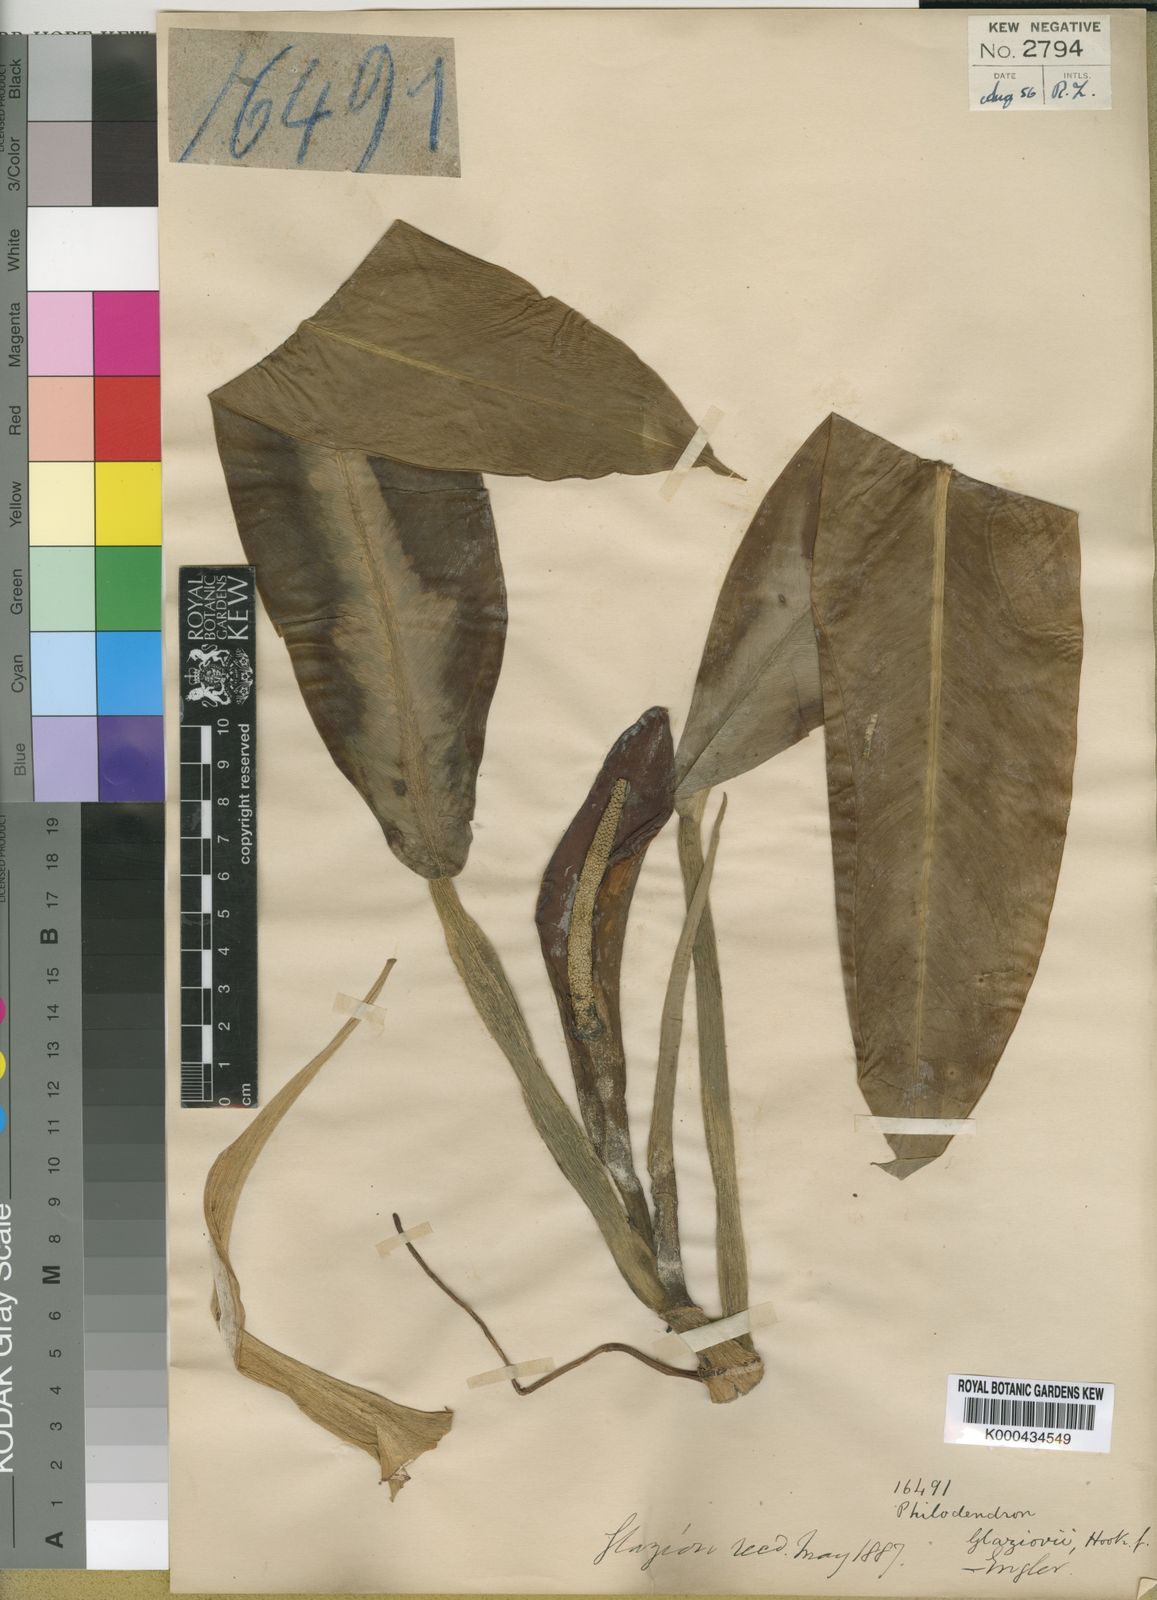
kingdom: Plantae
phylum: Tracheophyta
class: Liliopsida
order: Alismatales
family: Araceae
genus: Philodendron
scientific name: Philodendron glaziovii
